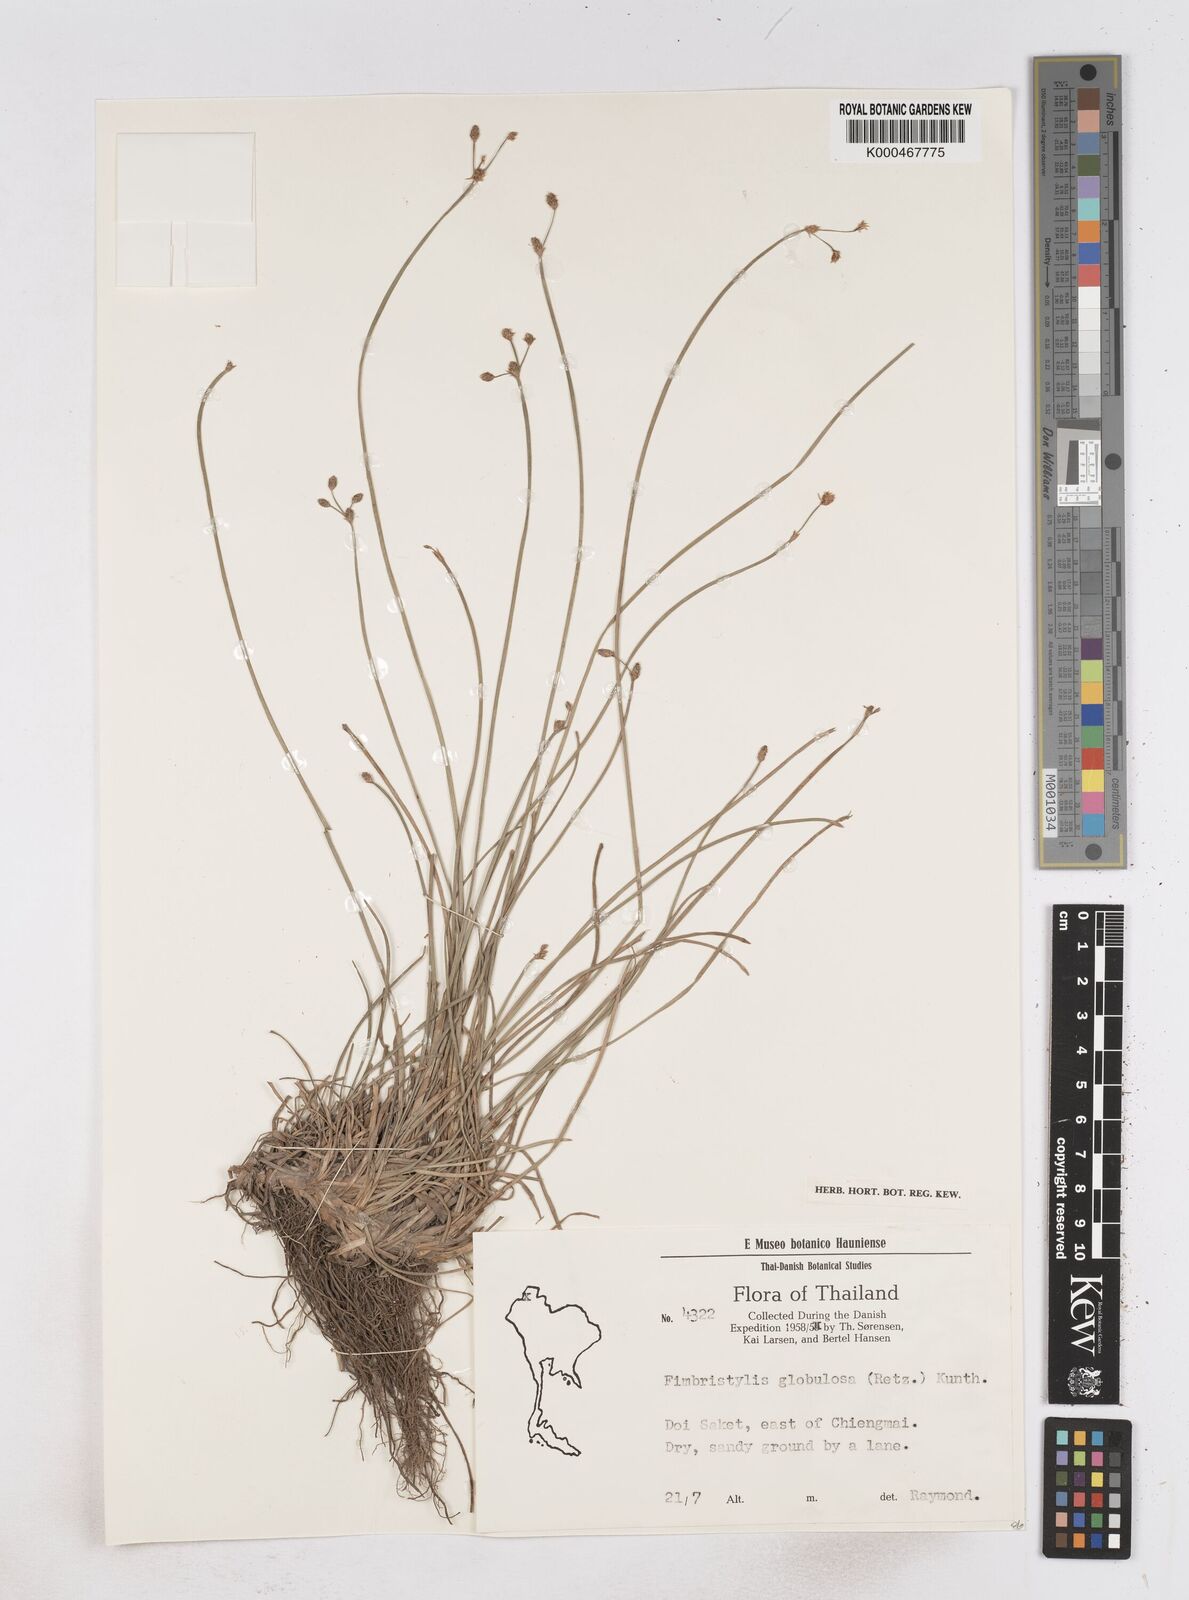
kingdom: Plantae
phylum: Tracheophyta
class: Liliopsida
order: Poales
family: Cyperaceae
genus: Fimbristylis
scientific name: Fimbristylis umbellaris
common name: Globular fimbristylis
